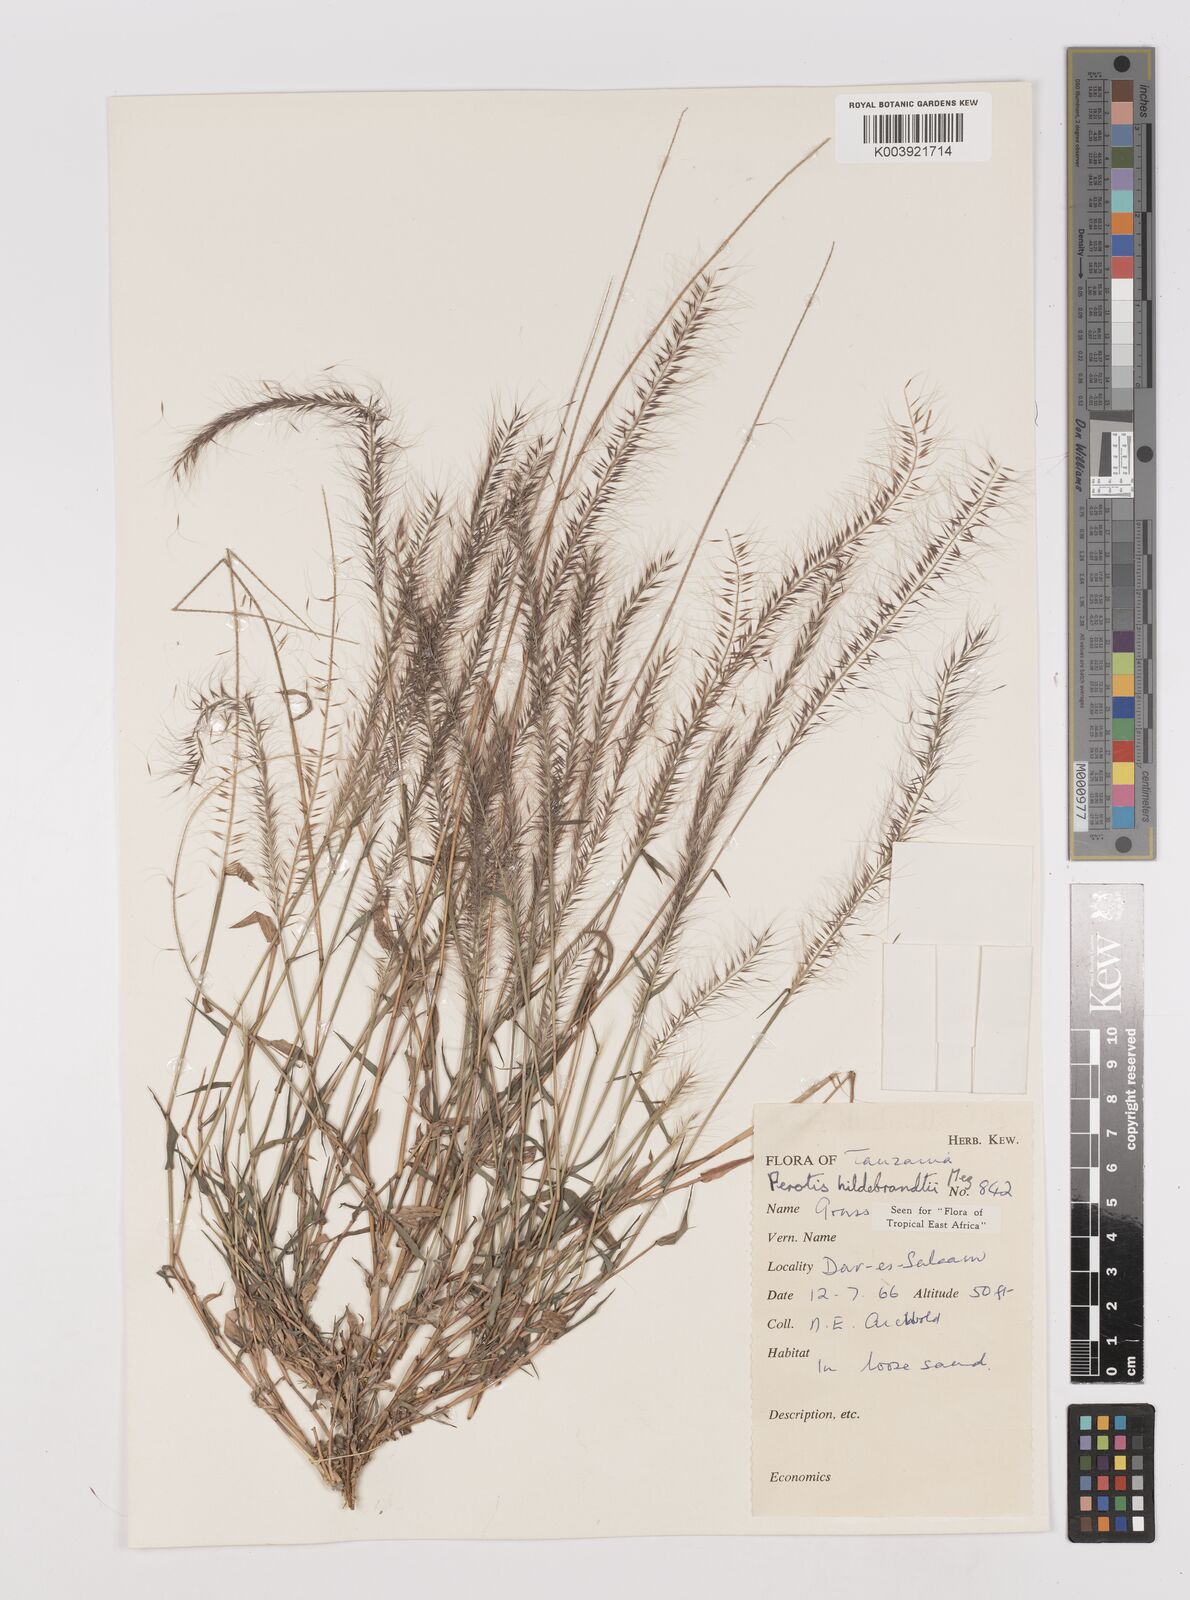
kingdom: Plantae
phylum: Tracheophyta
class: Liliopsida
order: Poales
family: Poaceae
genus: Perotis
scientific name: Perotis hildebrandtii
